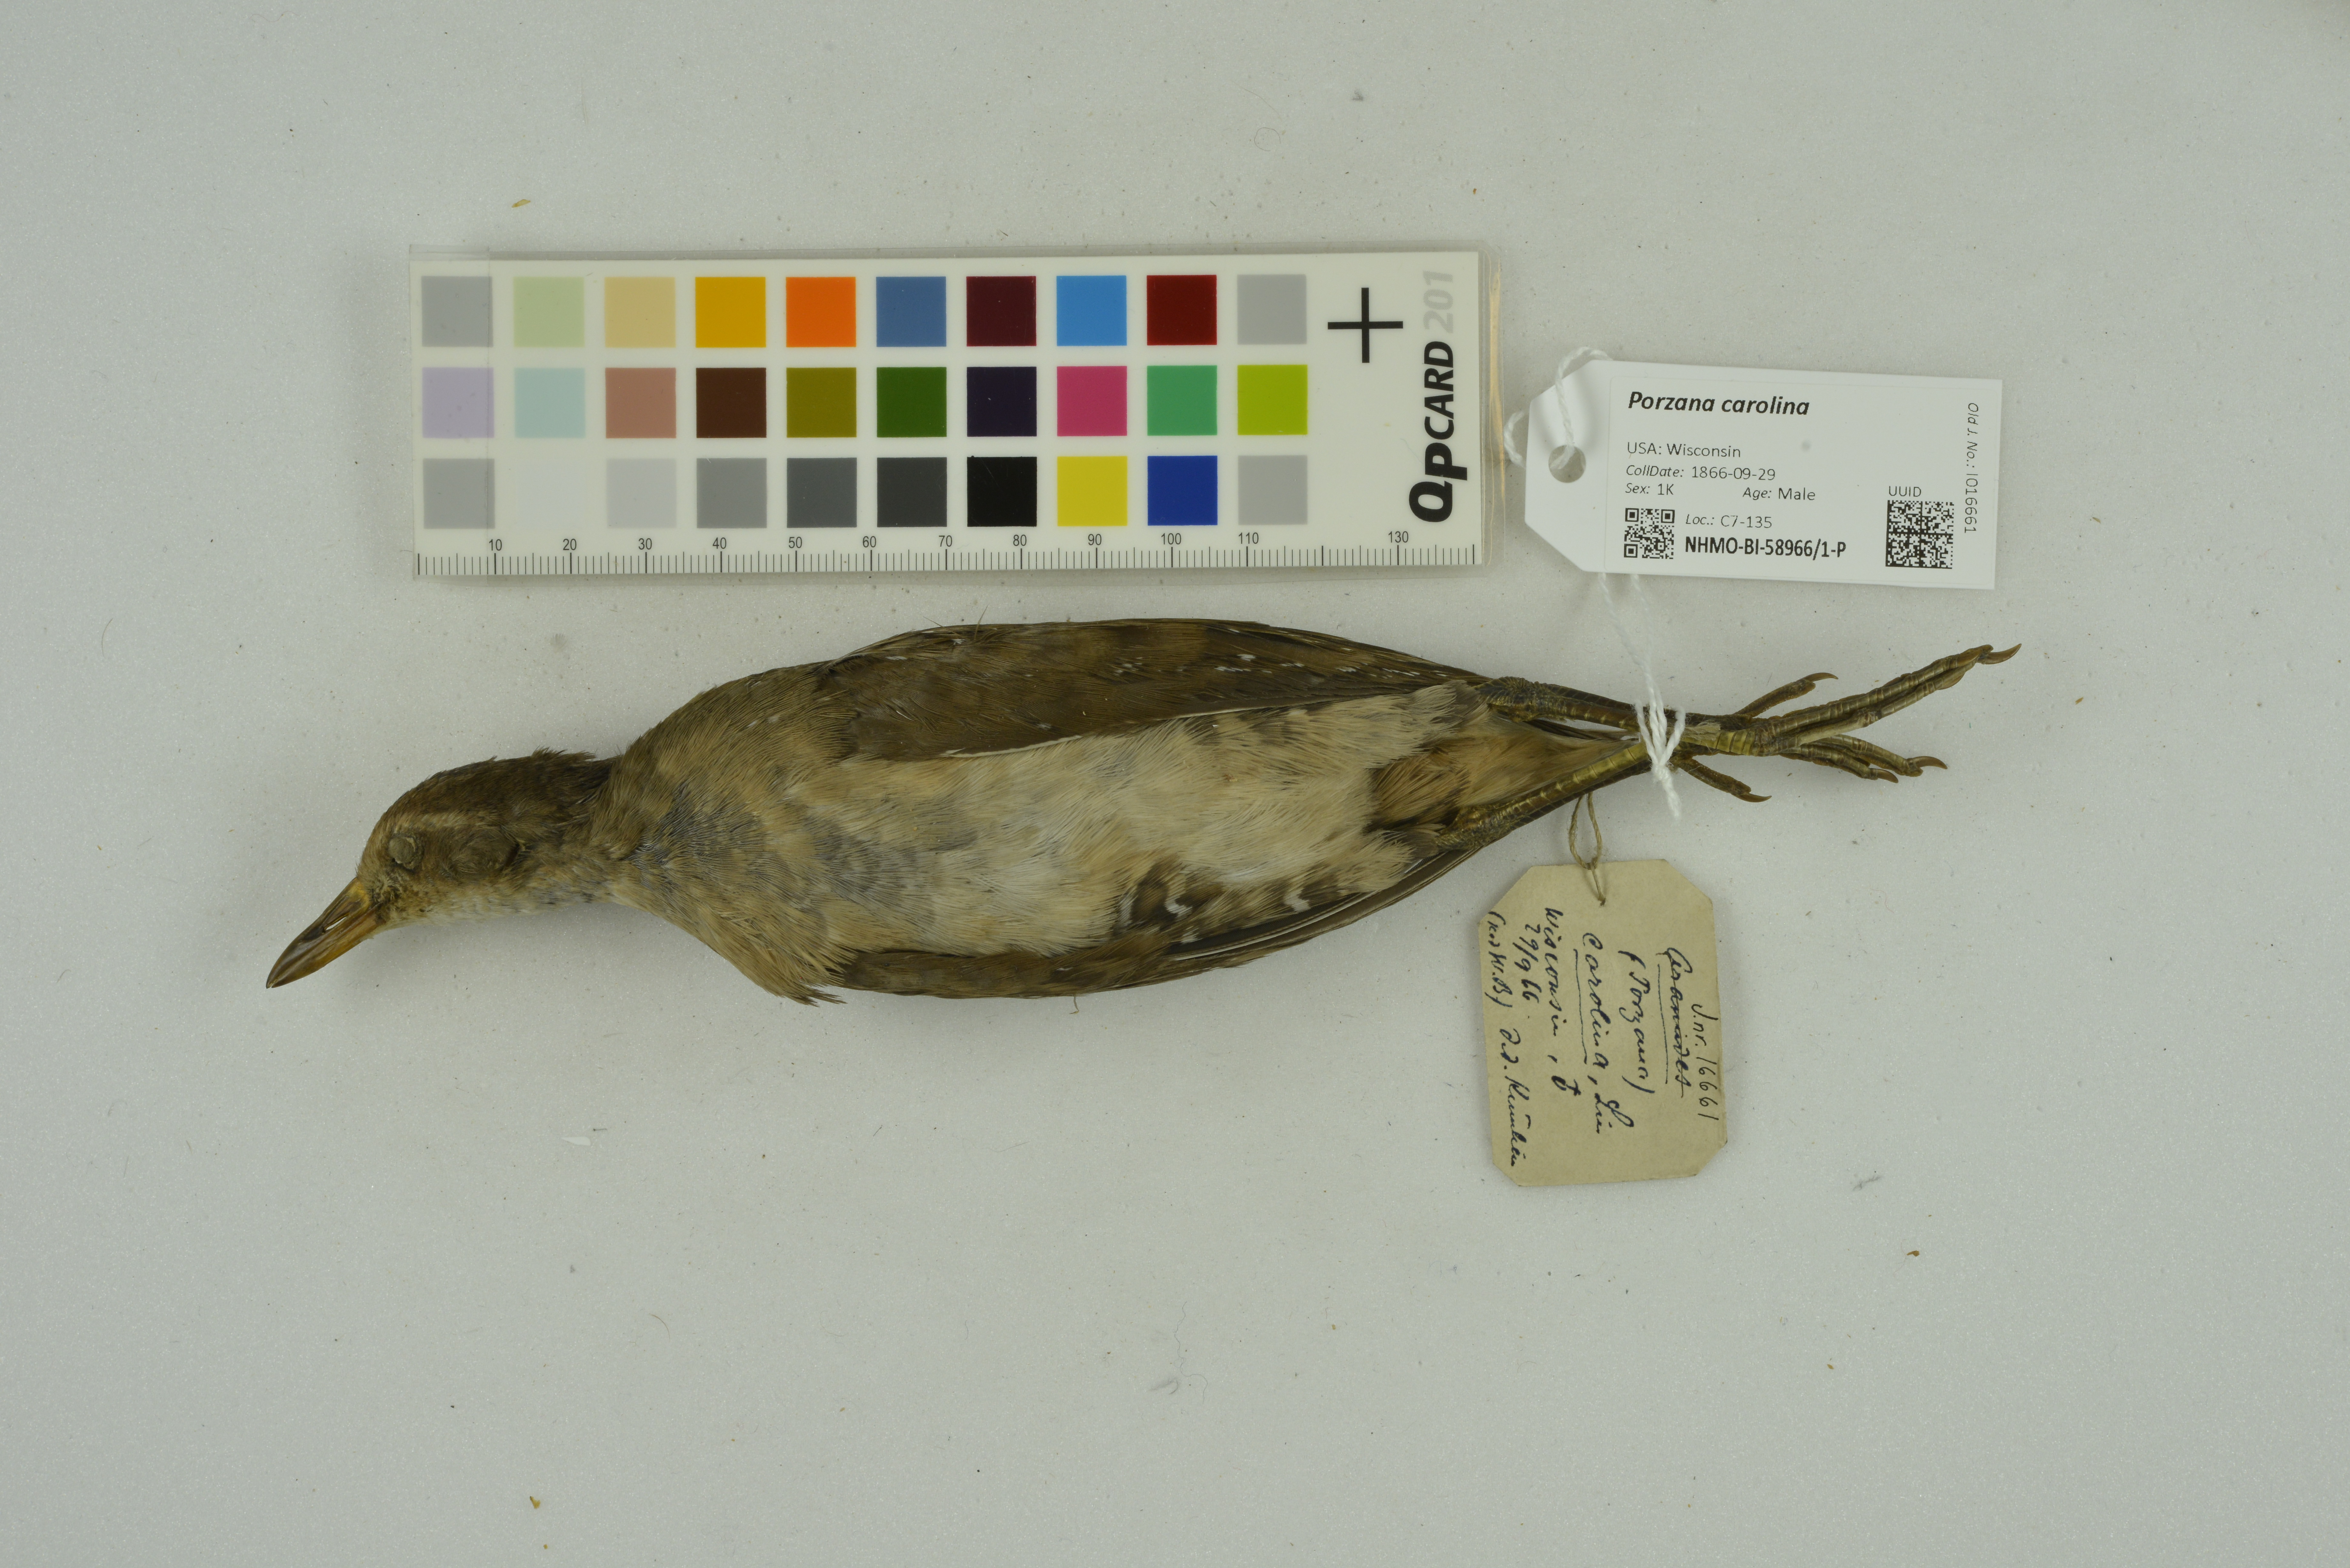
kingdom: Animalia
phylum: Chordata
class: Aves
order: Gruiformes
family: Rallidae
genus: Porzana
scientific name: Porzana carolina
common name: Sora
